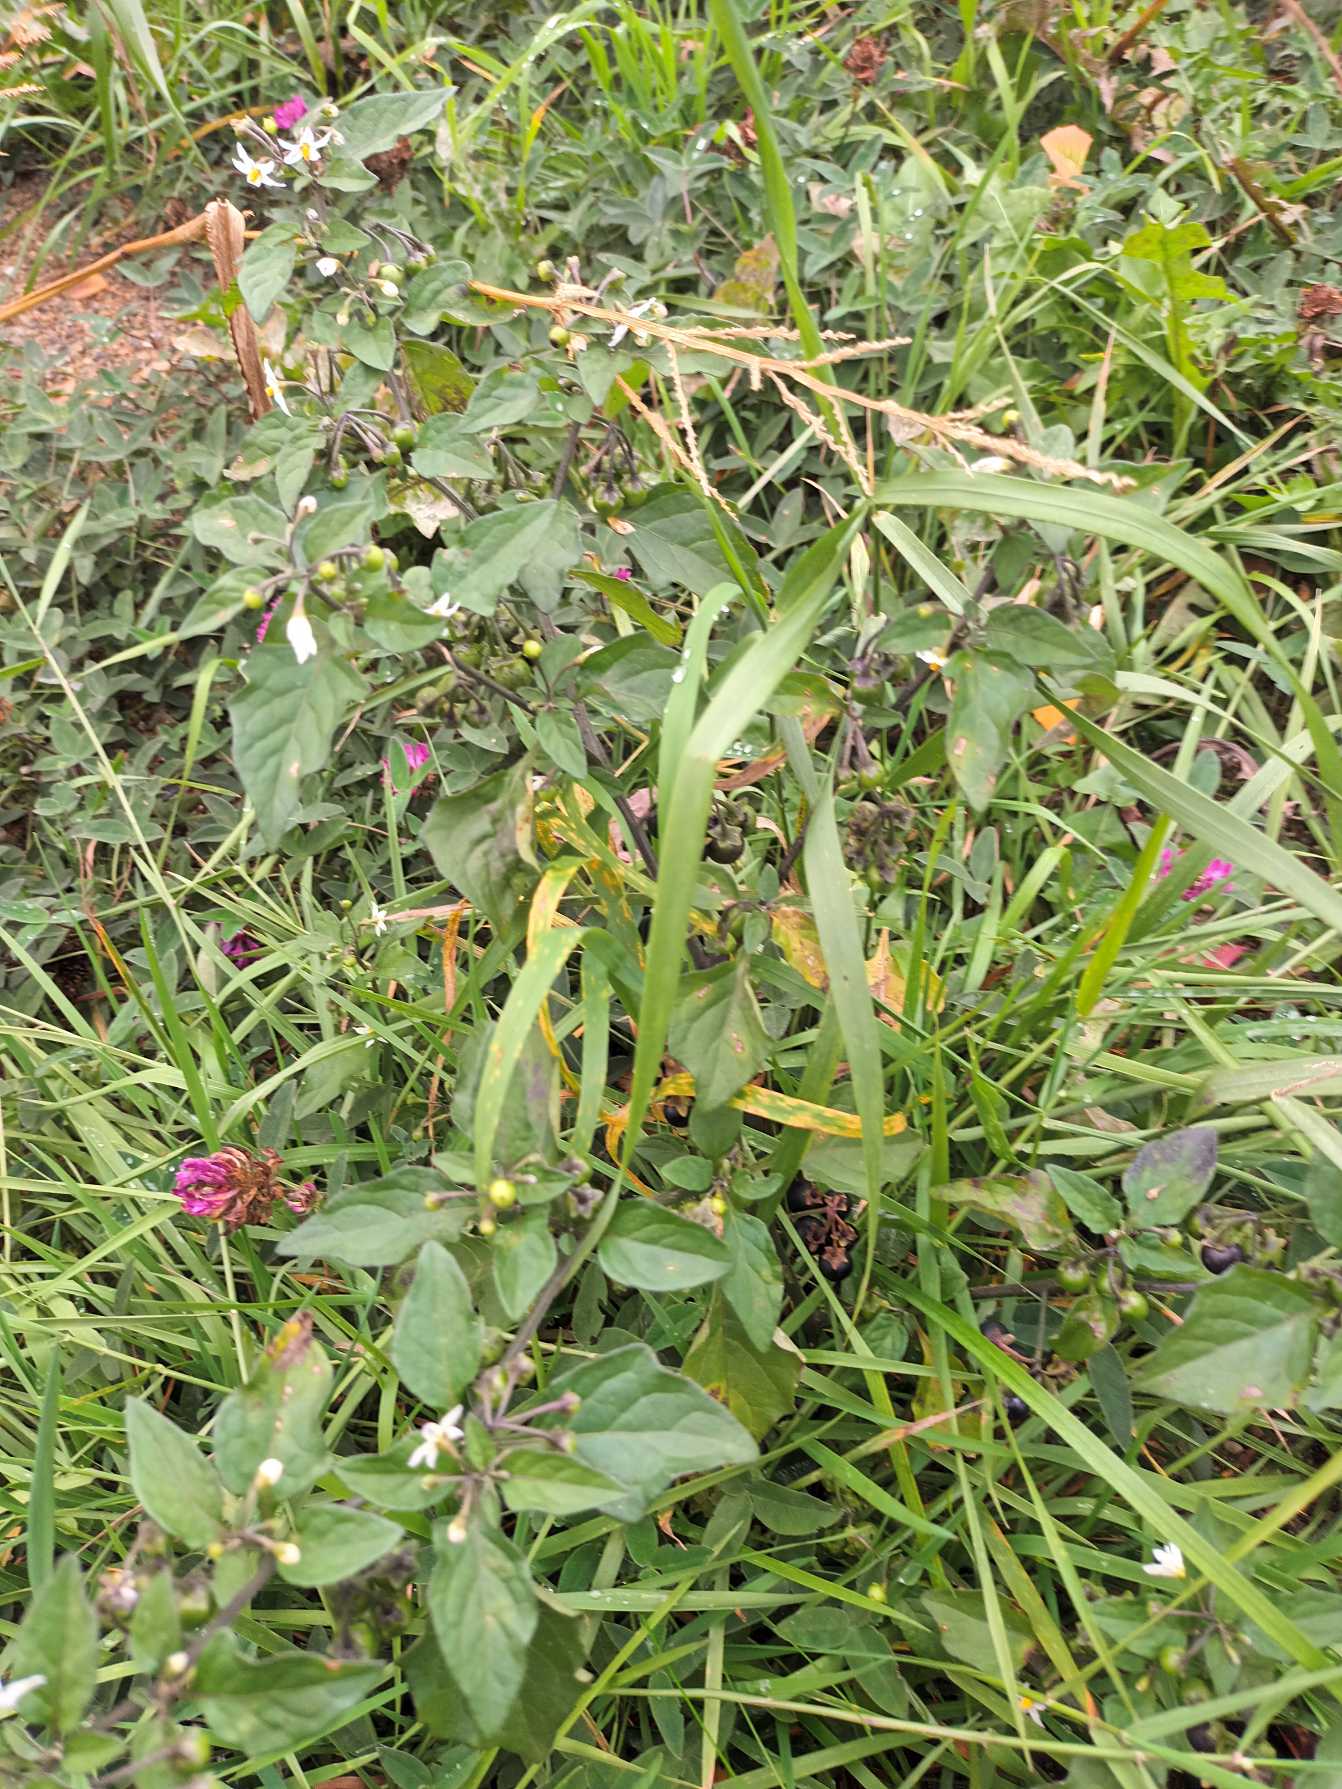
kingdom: Plantae
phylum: Tracheophyta
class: Magnoliopsida
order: Solanales
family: Solanaceae
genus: Solanum
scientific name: Solanum nigrum
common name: Sort natskygge
